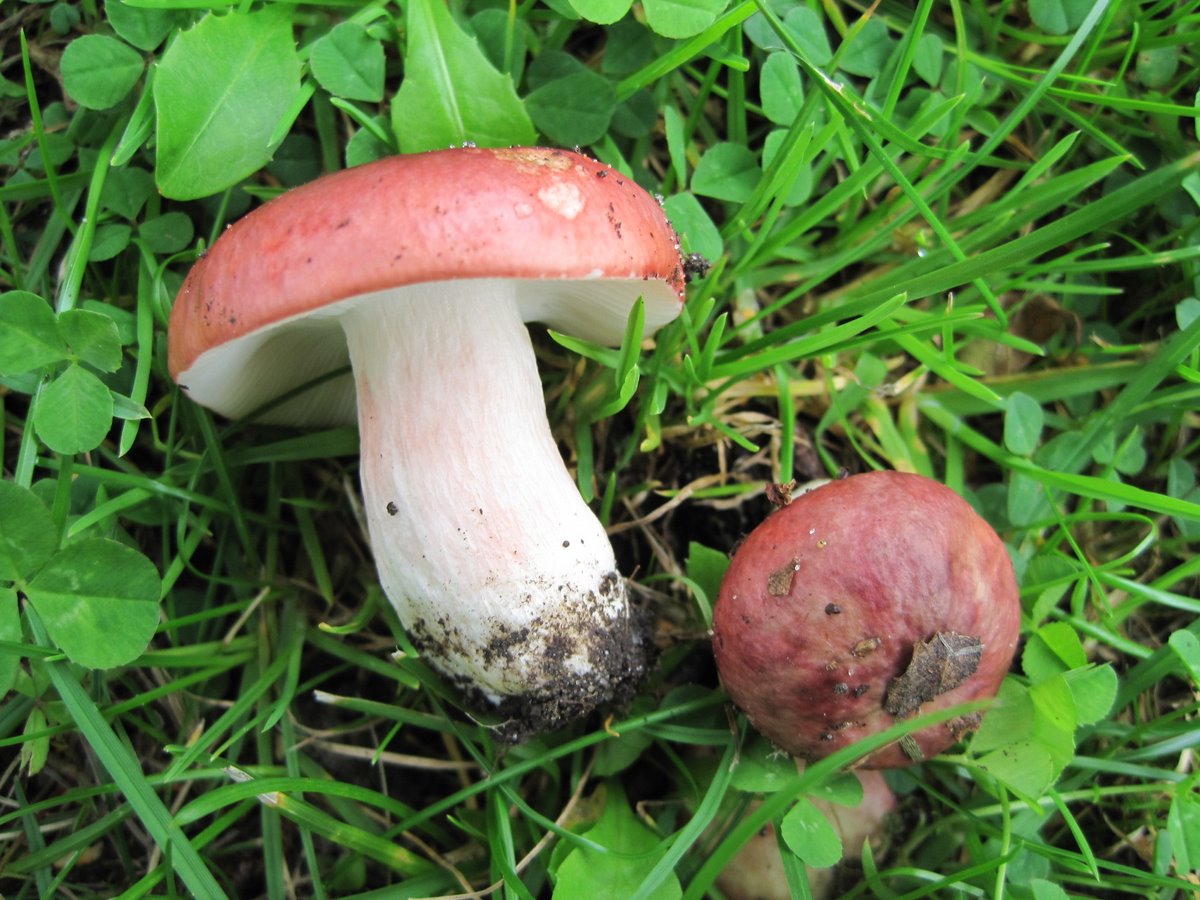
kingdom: Fungi
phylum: Basidiomycota
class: Agaricomycetes
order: Russulales
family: Russulaceae
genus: Russula
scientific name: Russula depallens
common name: falmende skørhat
